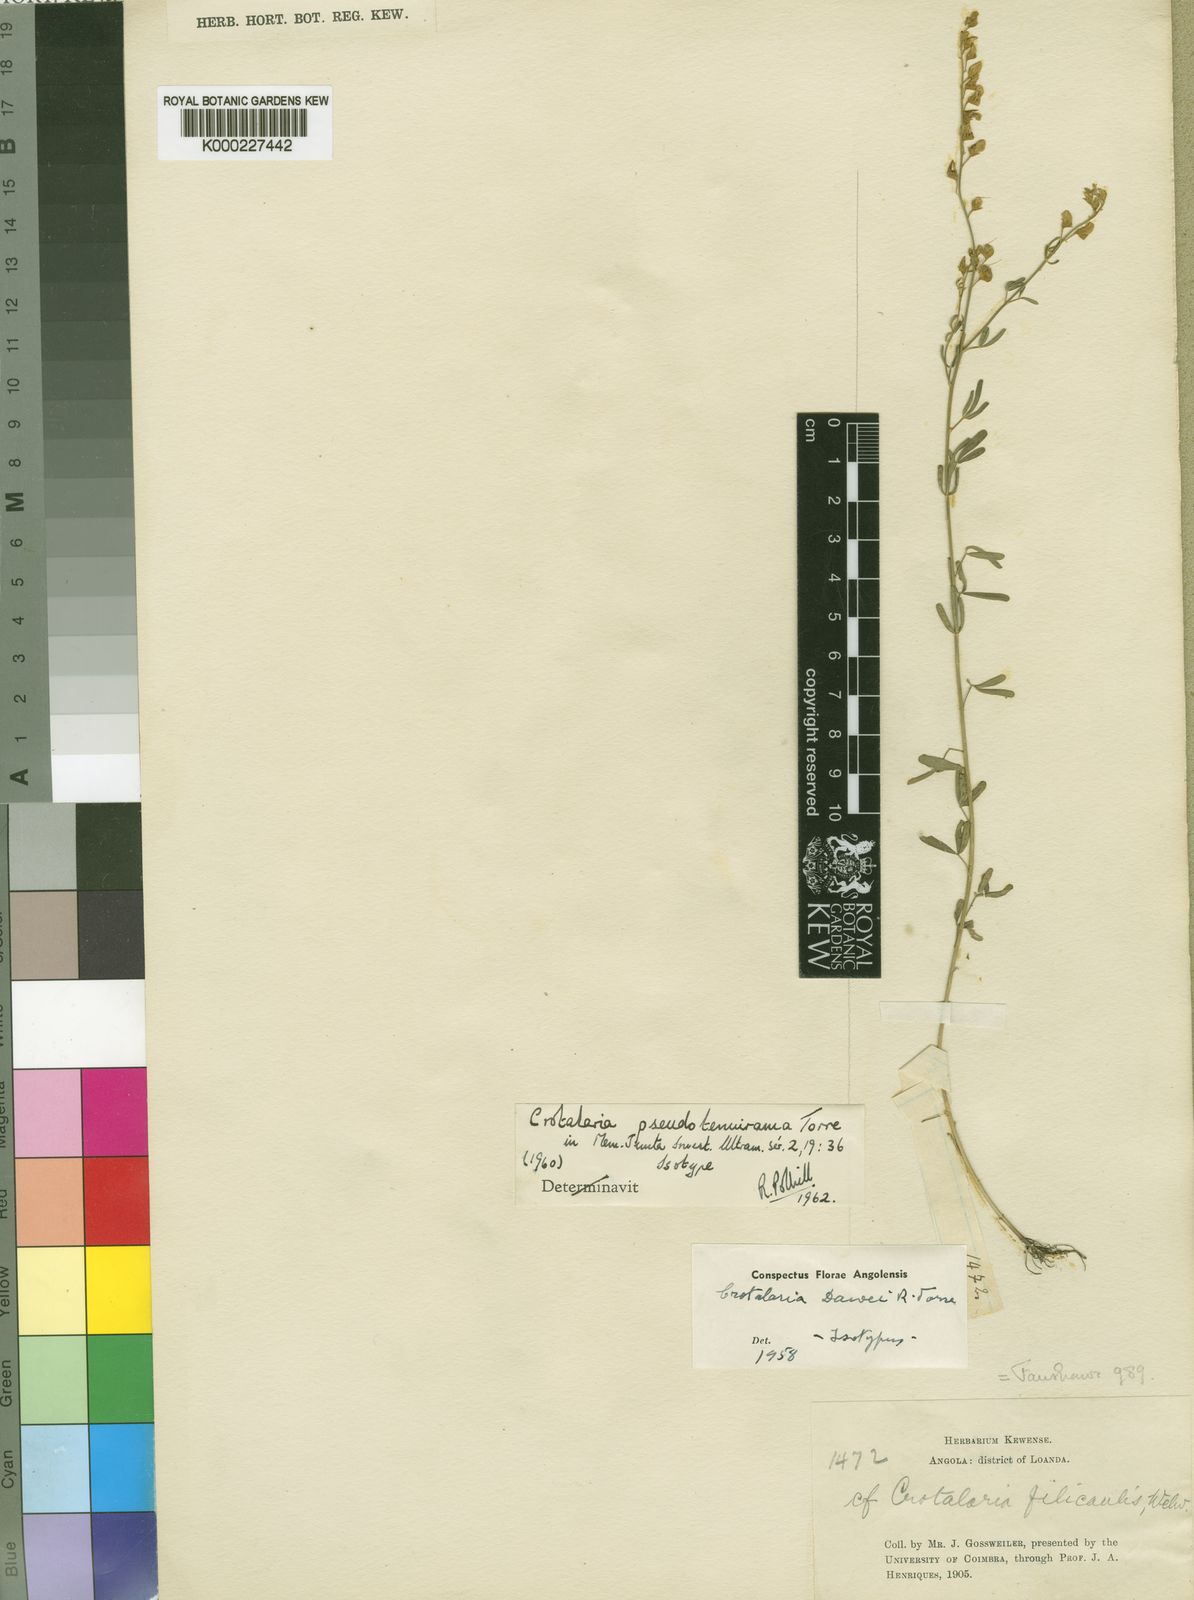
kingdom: Plantae
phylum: Tracheophyta
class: Magnoliopsida
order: Fabales
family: Fabaceae
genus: Crotalaria
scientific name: Crotalaria pseudotenuirama
